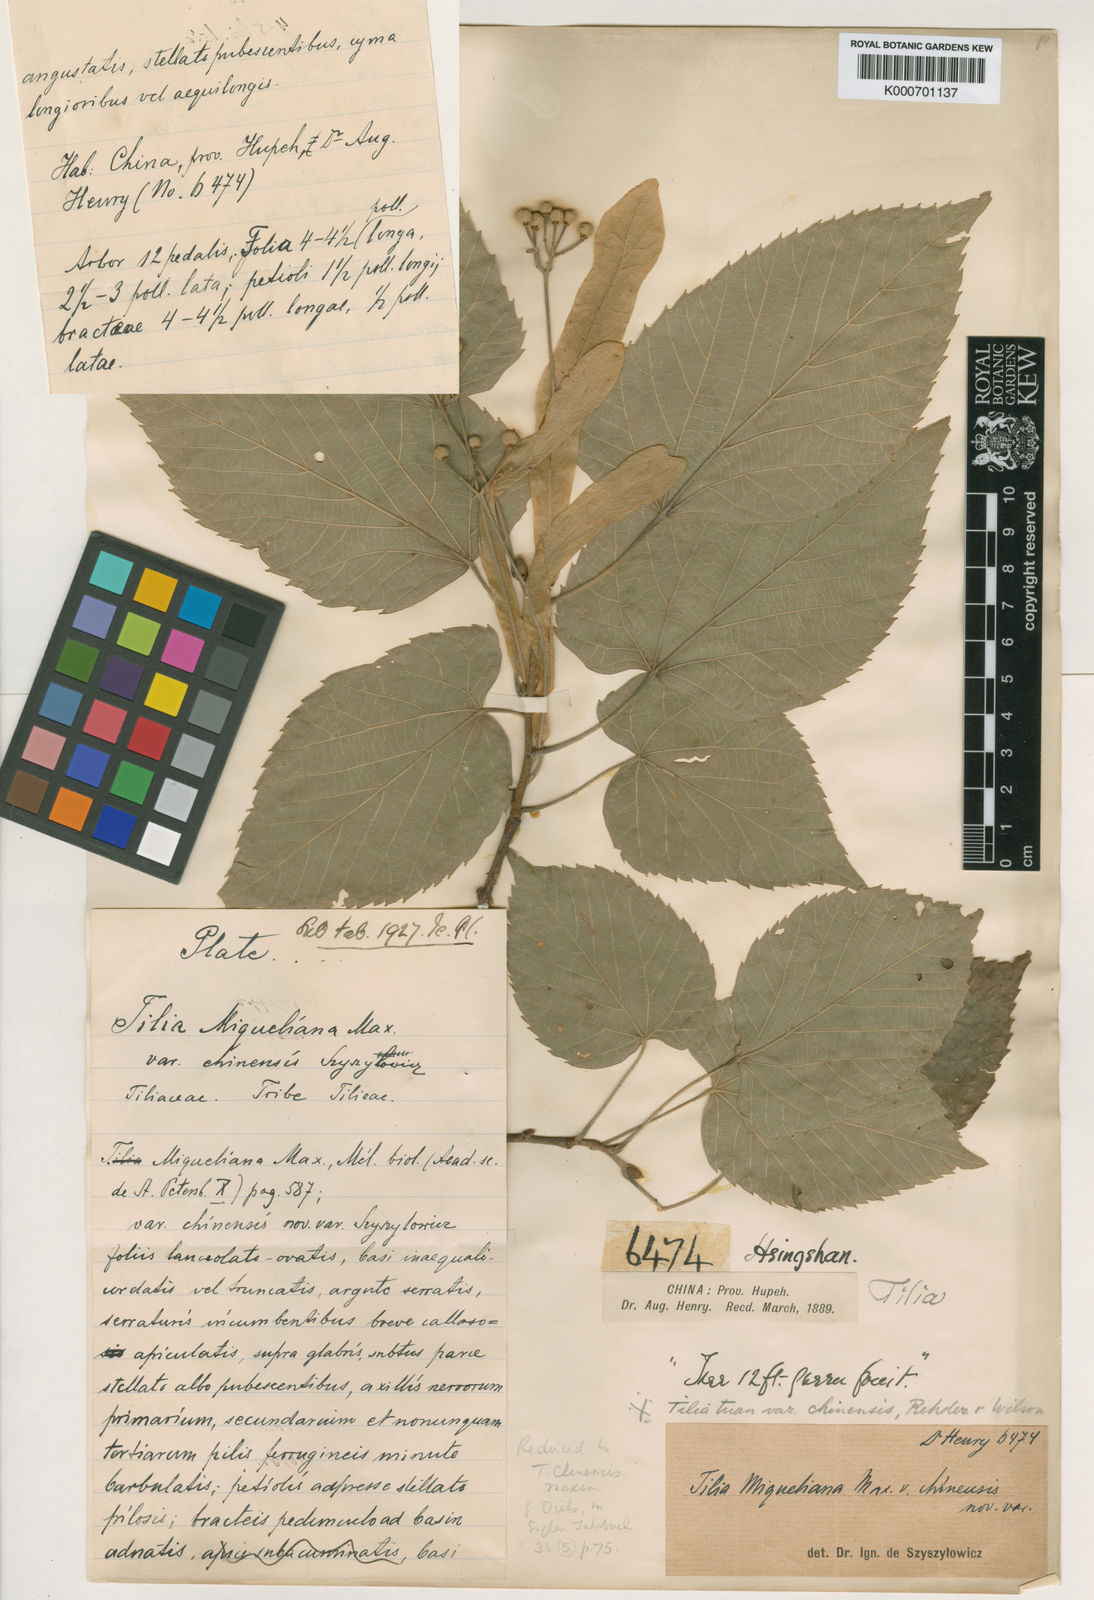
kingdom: Plantae
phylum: Tracheophyta
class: Magnoliopsida
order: Malvales
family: Malvaceae
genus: Tilia
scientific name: Tilia tuan
